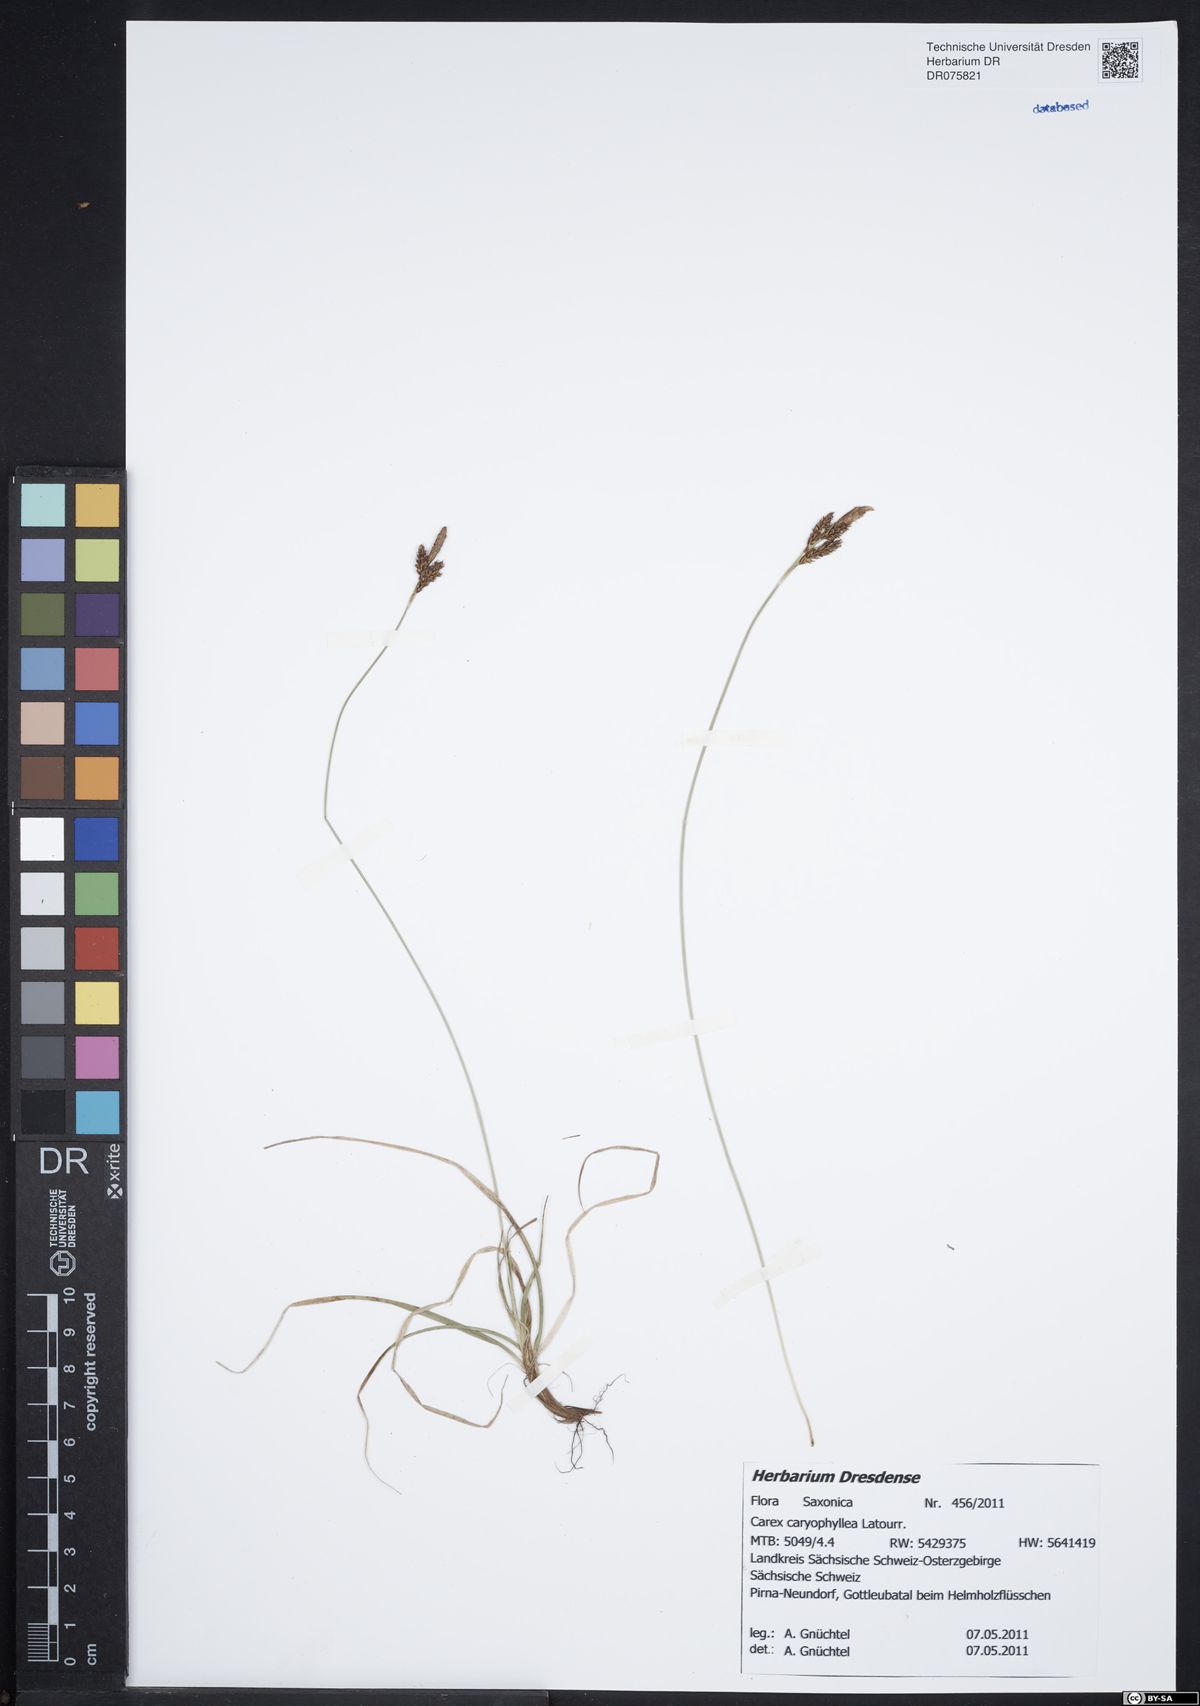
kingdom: Plantae
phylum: Tracheophyta
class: Liliopsida
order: Poales
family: Cyperaceae
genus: Carex
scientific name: Carex caryophyllea
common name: Spring sedge
